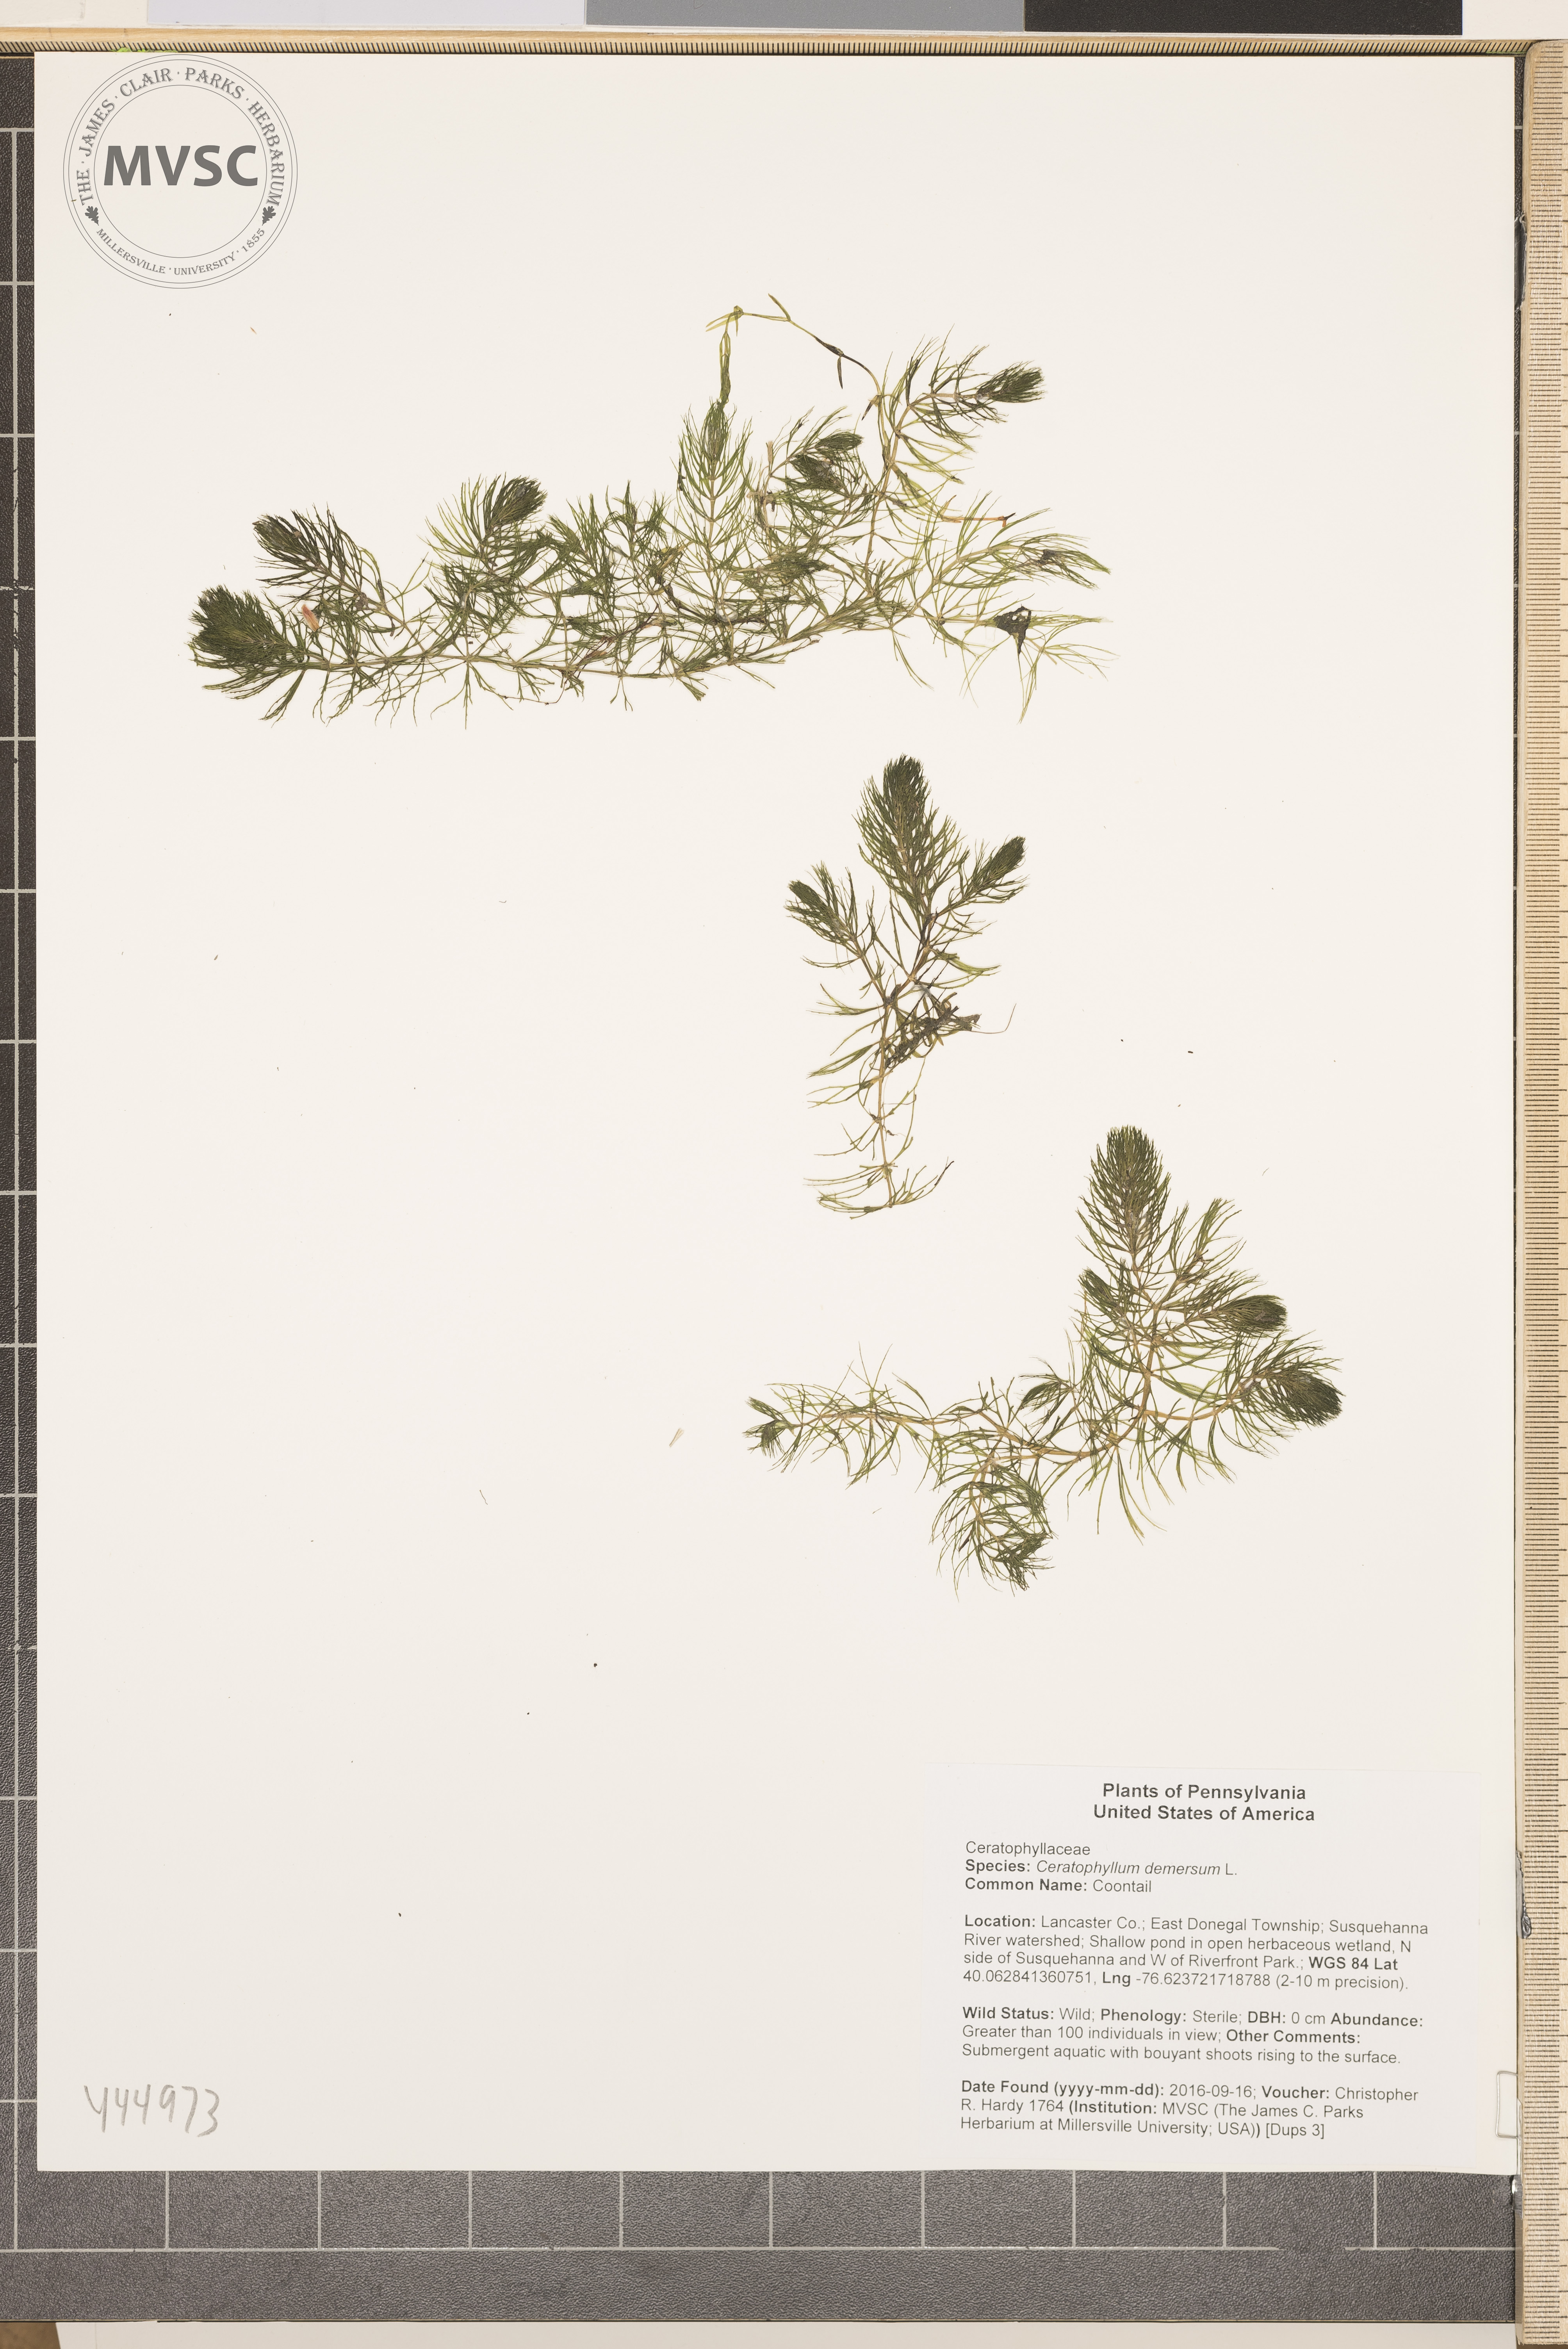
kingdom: Plantae
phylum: Tracheophyta
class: Magnoliopsida
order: Ceratophyllales
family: Ceratophyllaceae
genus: Ceratophyllum
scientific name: Ceratophyllum demersum
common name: Coontail
